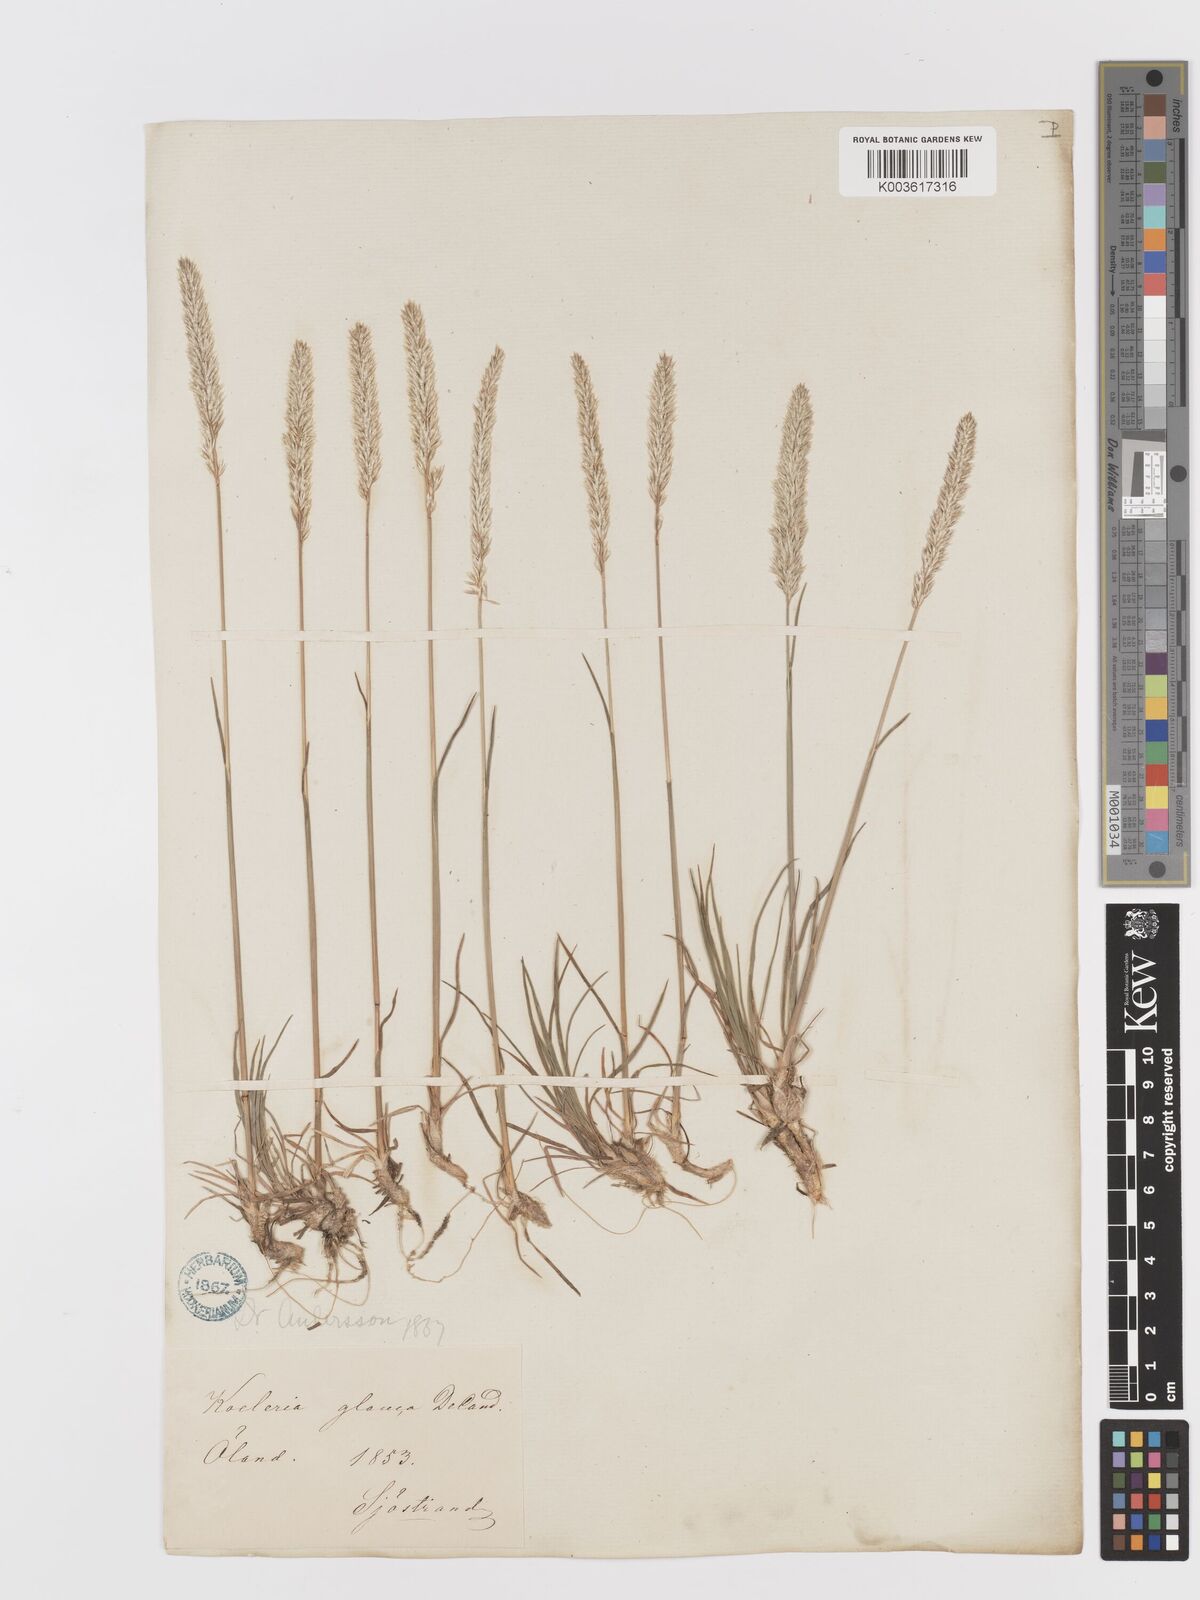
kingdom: Plantae
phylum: Tracheophyta
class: Liliopsida
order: Poales
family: Poaceae
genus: Koeleria
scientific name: Koeleria glauca
